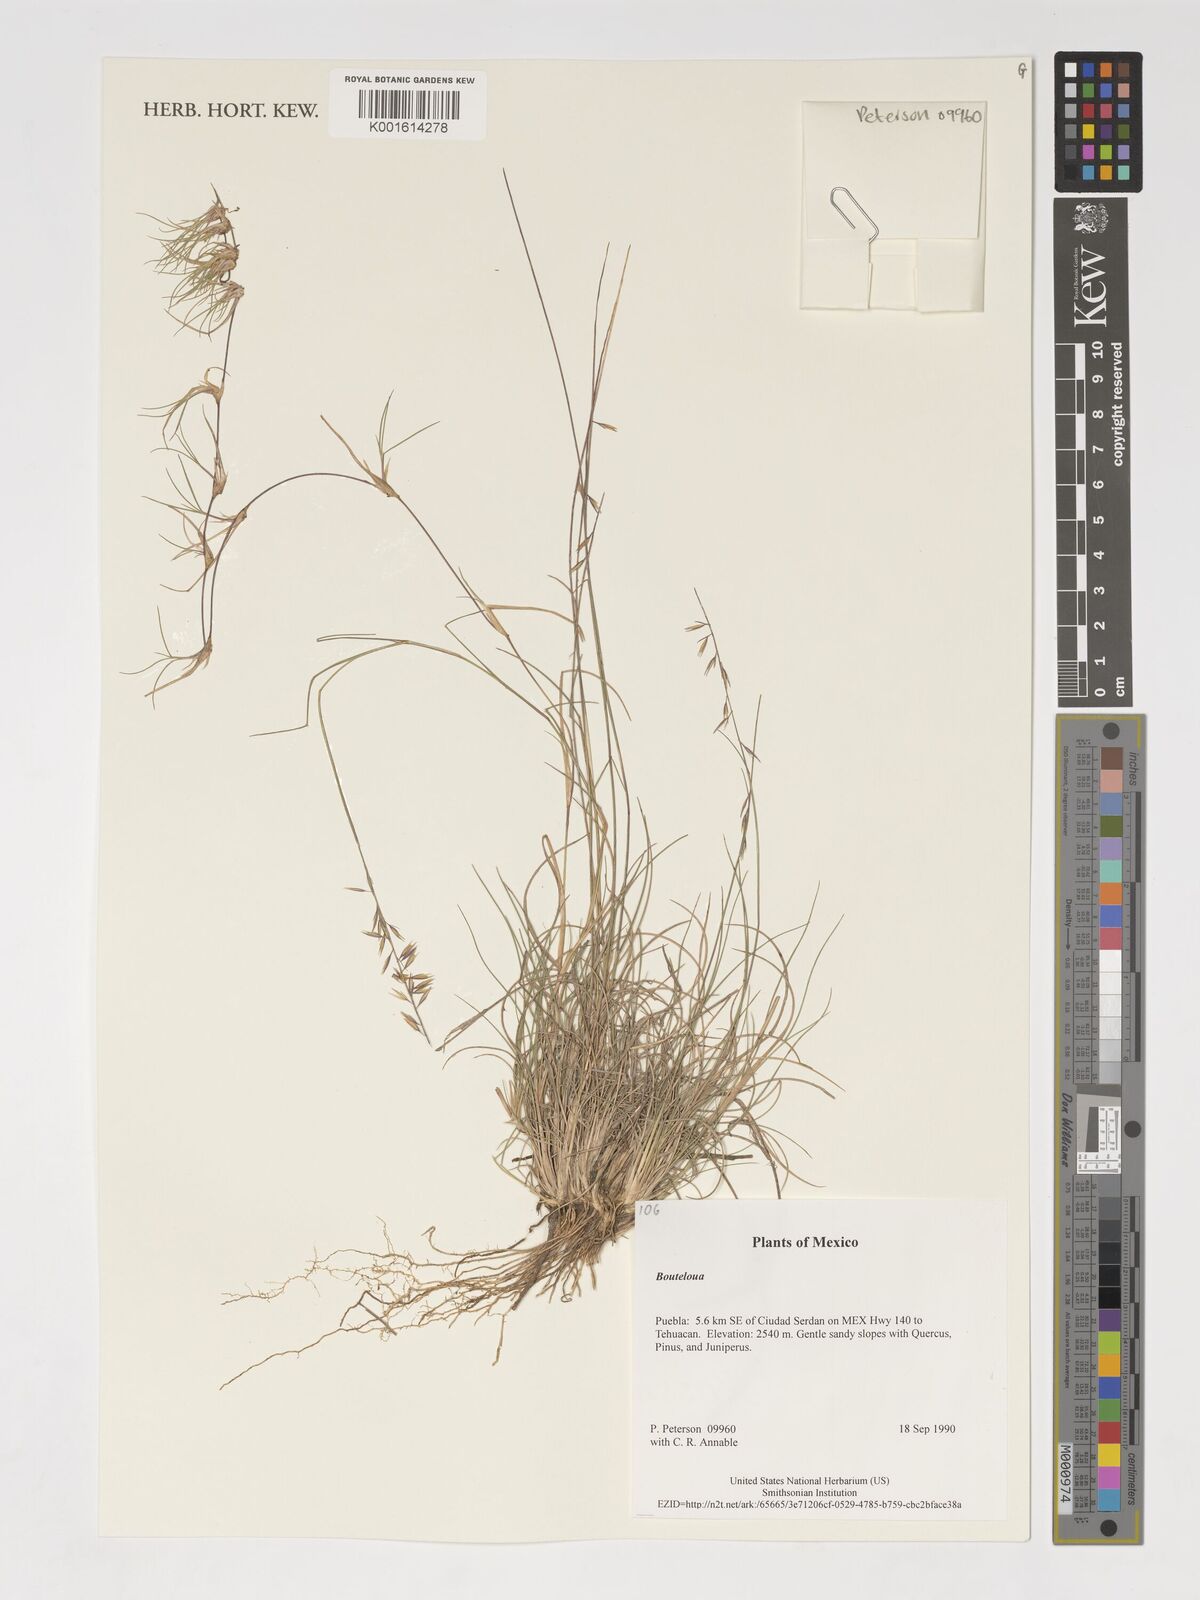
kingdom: Plantae
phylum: Tracheophyta
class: Liliopsida
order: Poales
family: Poaceae
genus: Bouteloua
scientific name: Bouteloua
